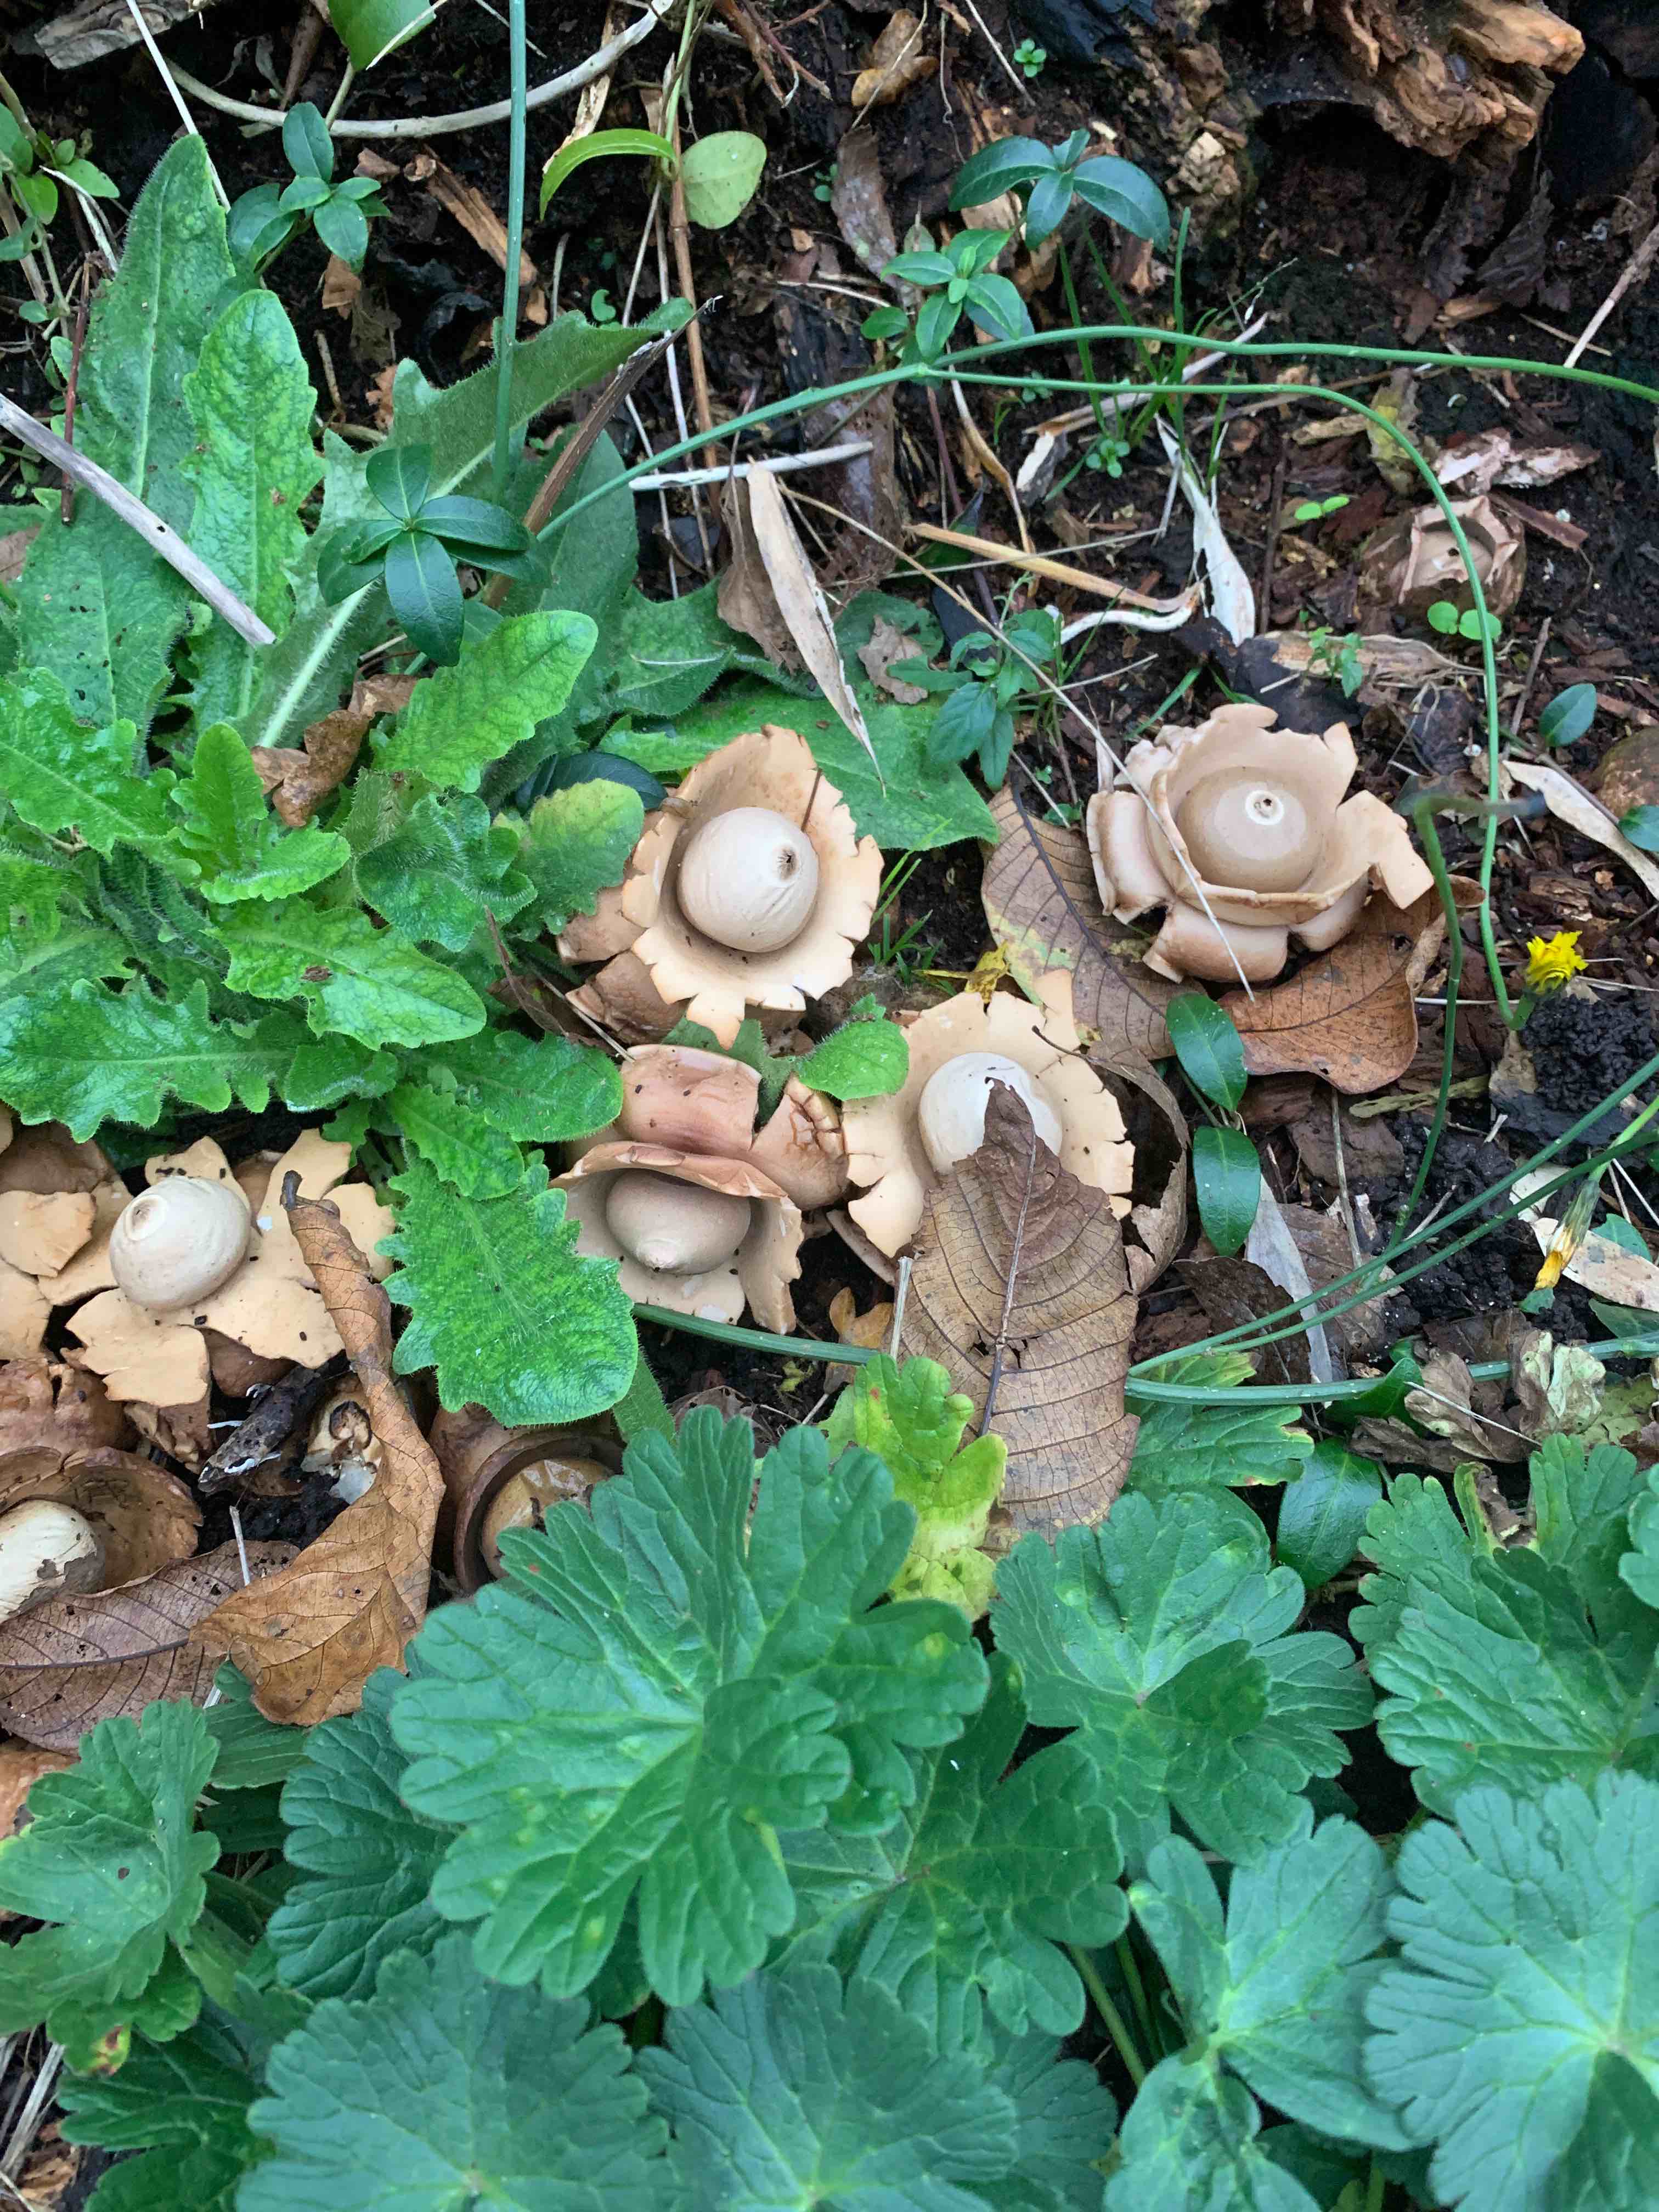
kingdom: Fungi
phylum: Basidiomycota
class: Agaricomycetes
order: Geastrales
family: Geastraceae
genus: Geastrum
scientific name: Geastrum michelianum
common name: kødet stjernebold
